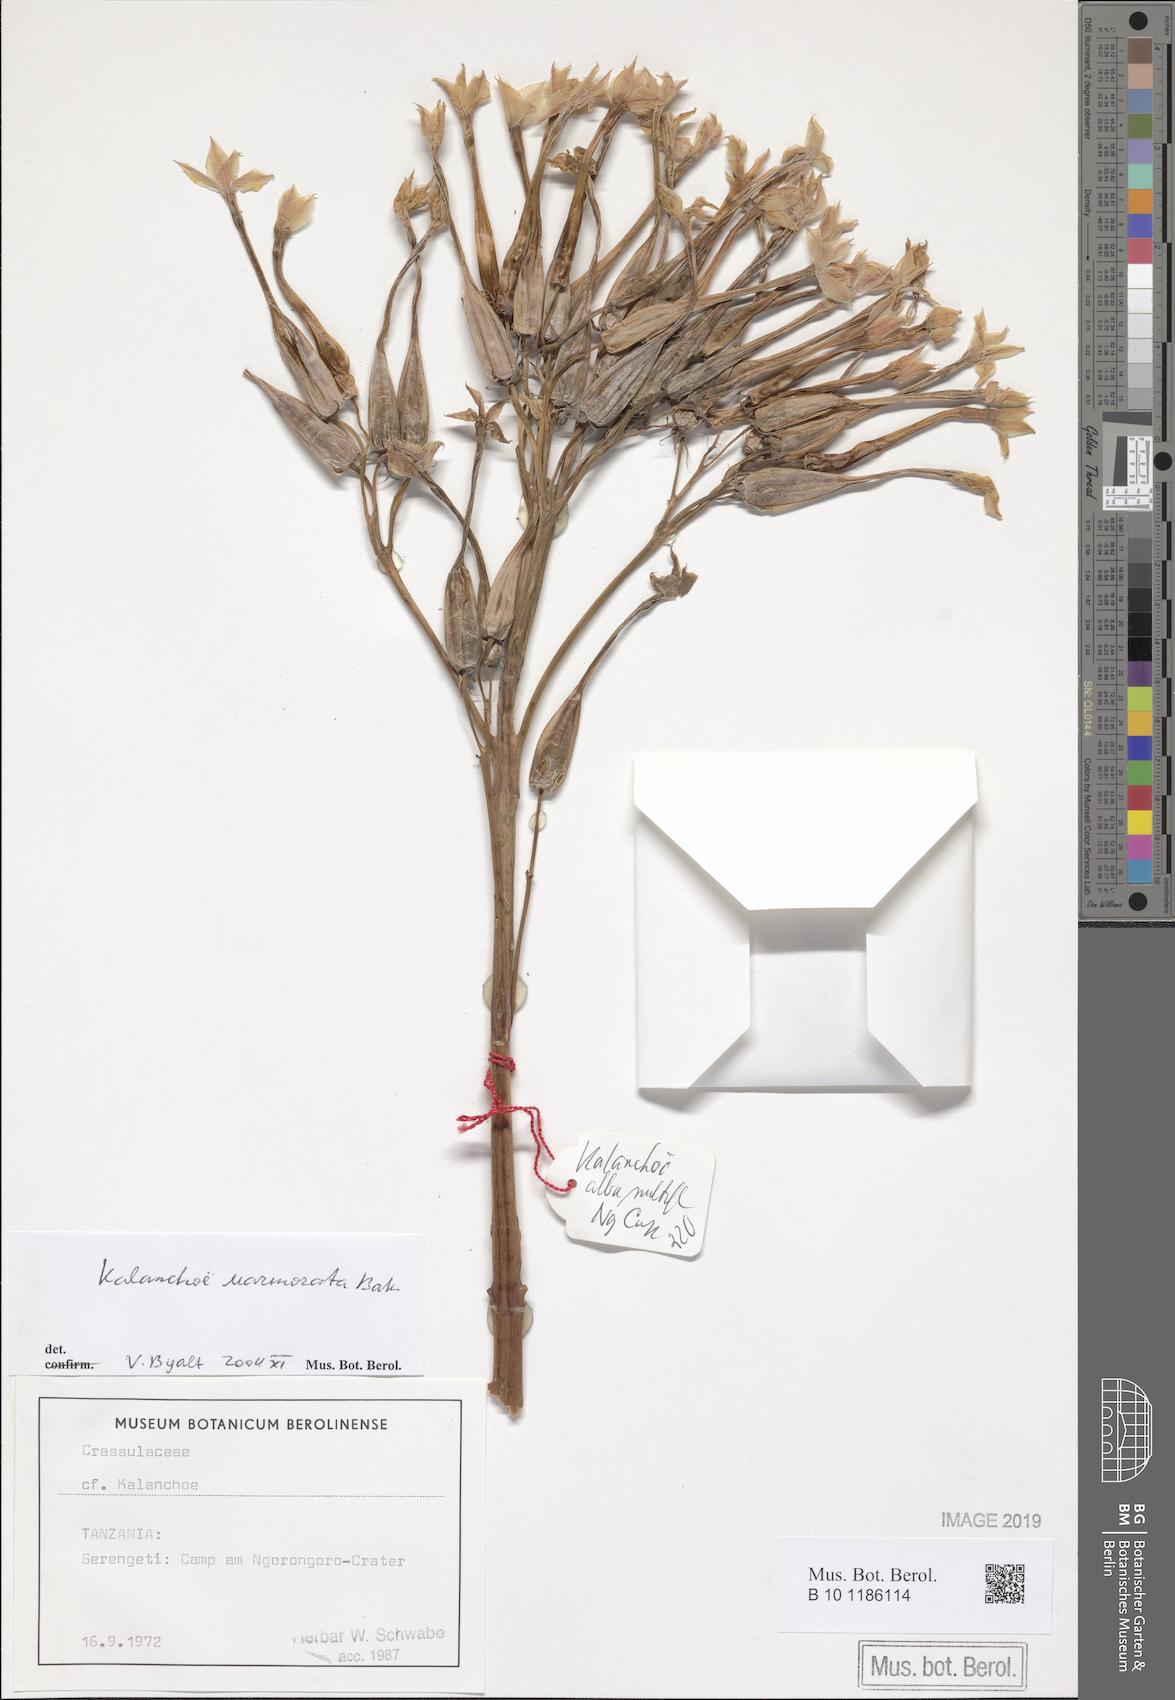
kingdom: Plantae
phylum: Tracheophyta
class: Magnoliopsida
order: Saxifragales
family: Crassulaceae
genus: Kalanchoe
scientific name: Kalanchoe marmorata
